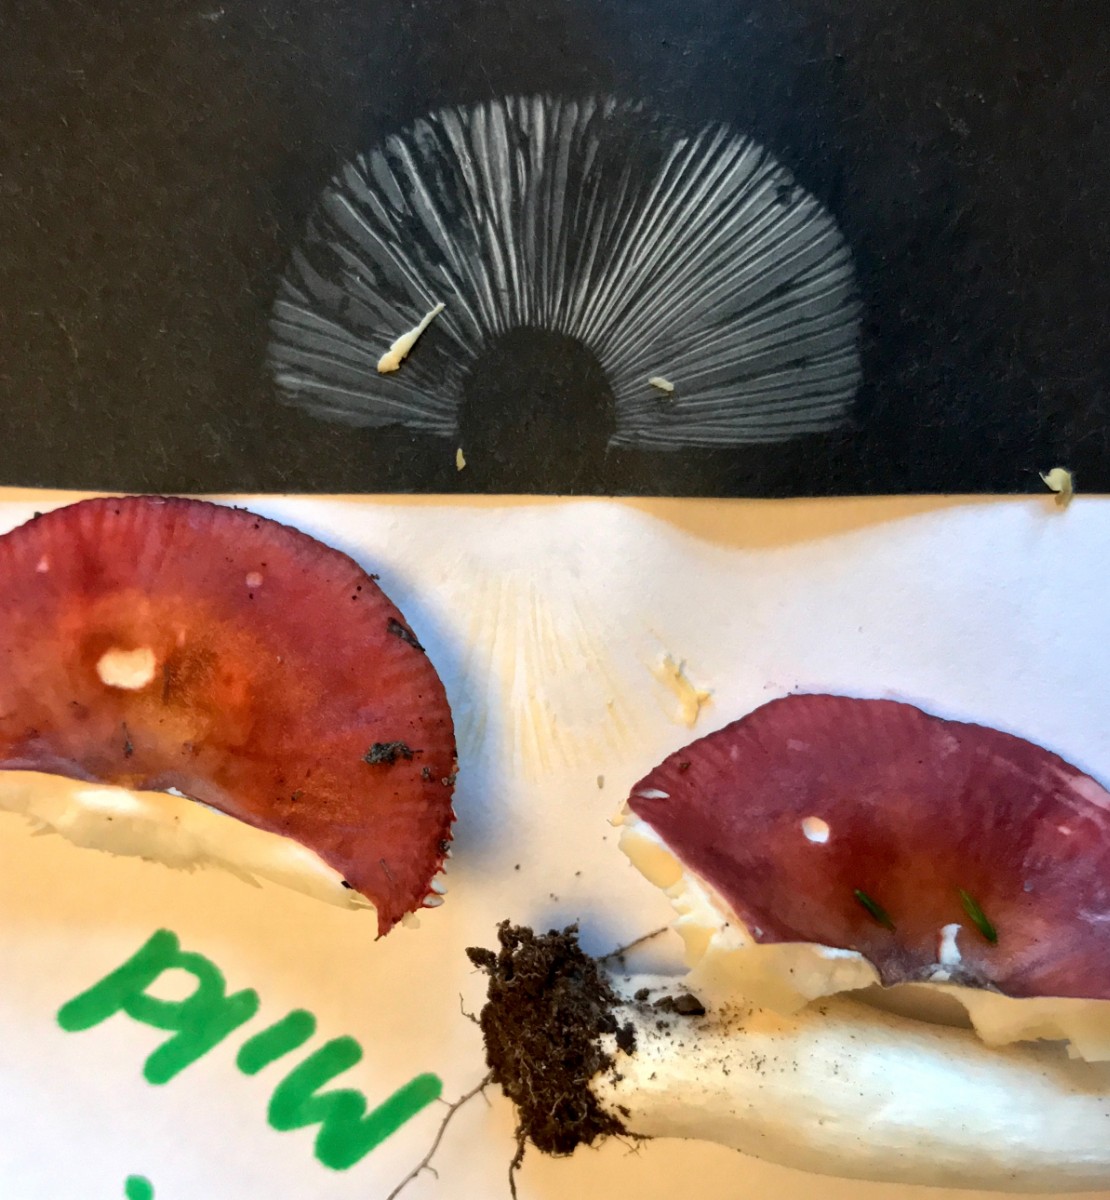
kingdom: Fungi
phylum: Basidiomycota
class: Agaricomycetes
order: Russulales
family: Russulaceae
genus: Russula
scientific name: Russula nitida
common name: året skørhat
